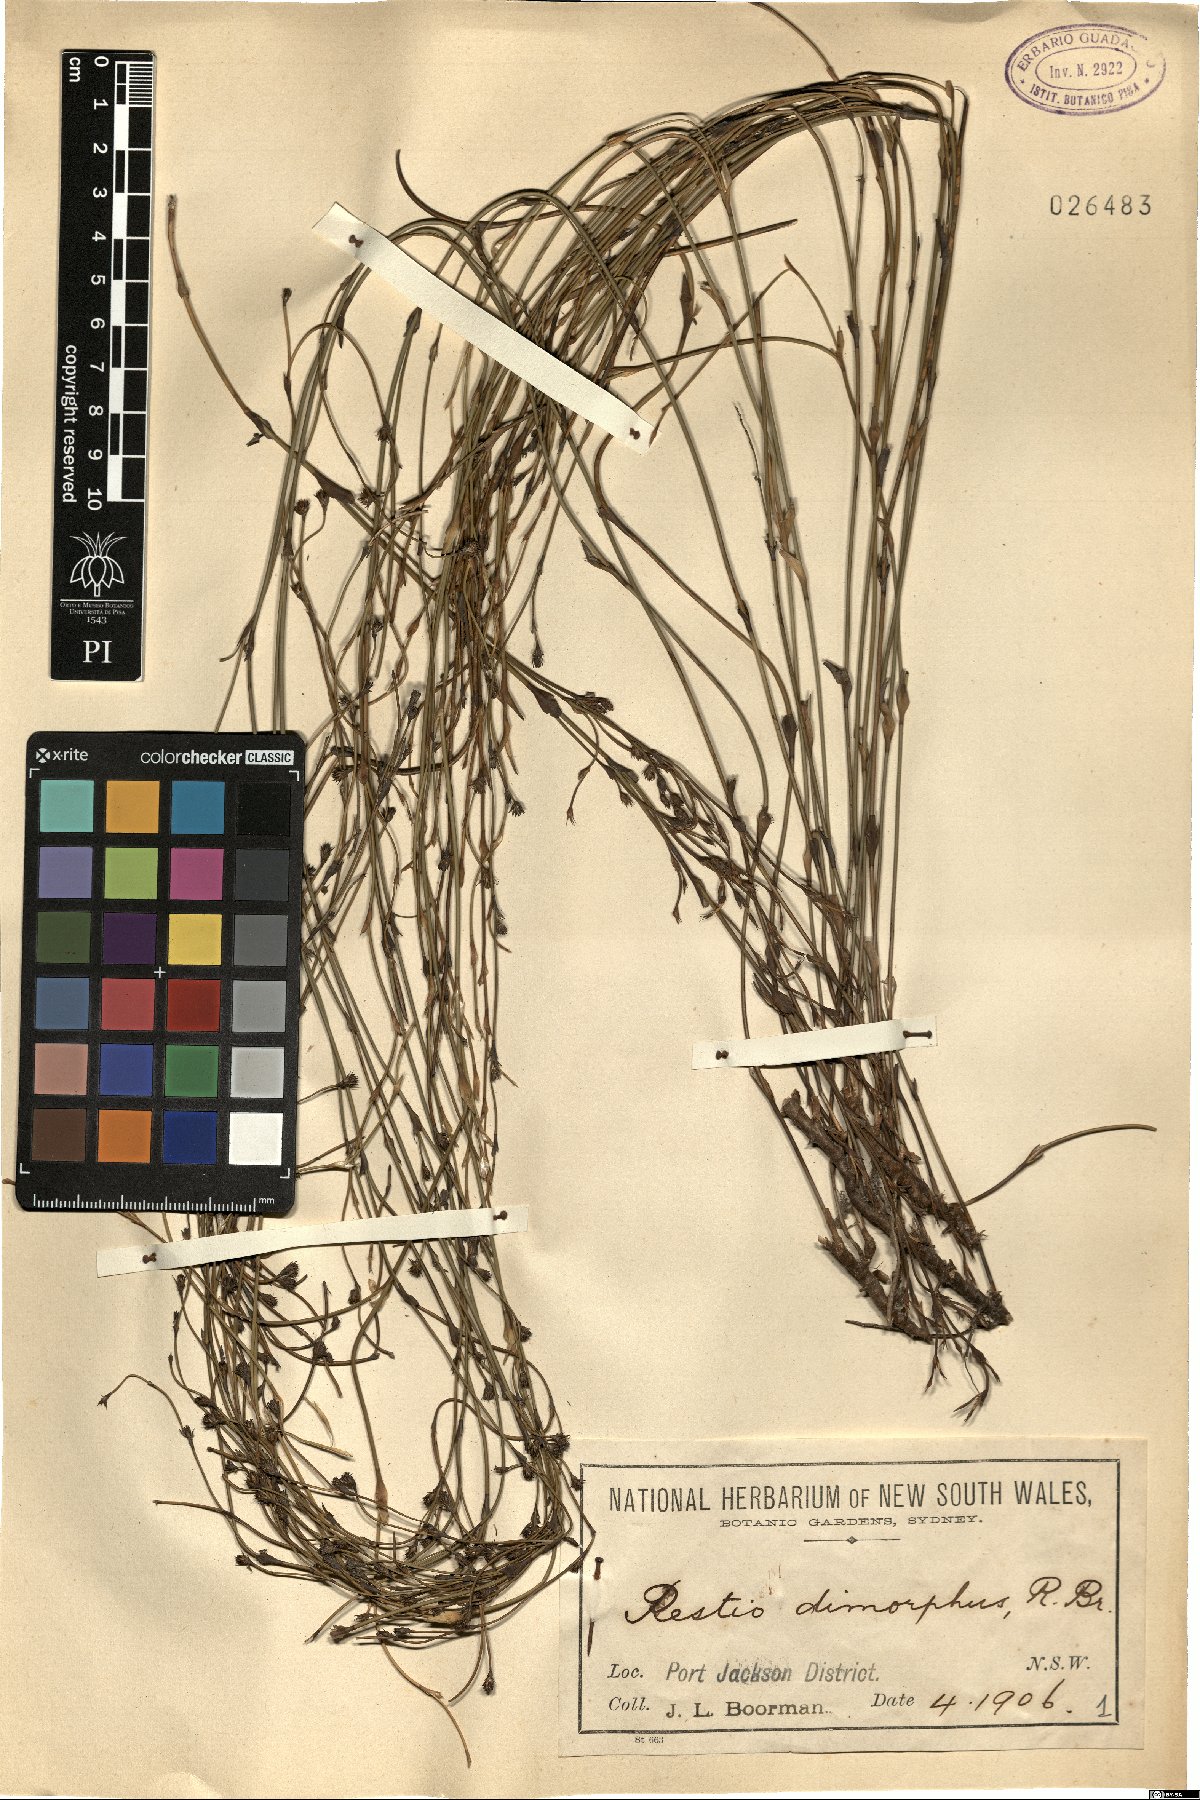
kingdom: Plantae
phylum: Tracheophyta
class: Liliopsida
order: Poales
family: Restionaceae
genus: Chordifex
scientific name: Chordifex dimorphus
